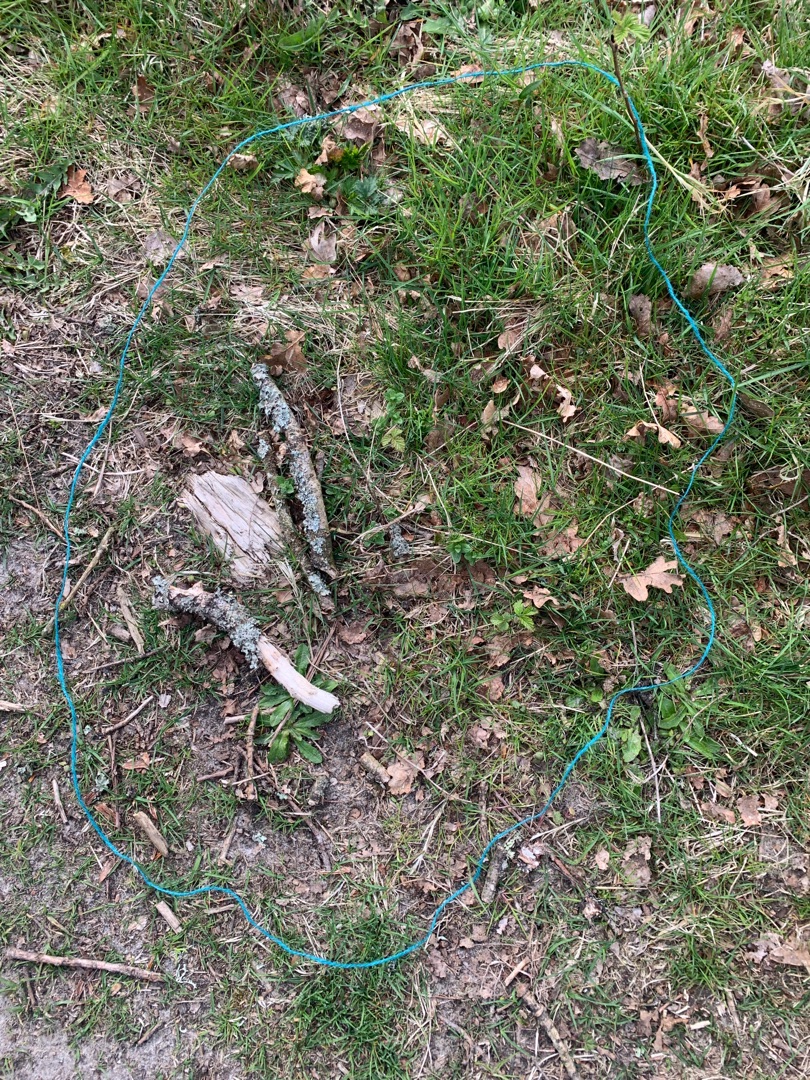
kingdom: Fungi
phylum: Ascomycota
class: Lecanoromycetes
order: Lecanorales
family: Parmeliaceae
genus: Hypogymnia
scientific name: Hypogymnia physodes
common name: Almindelig kvistlav
